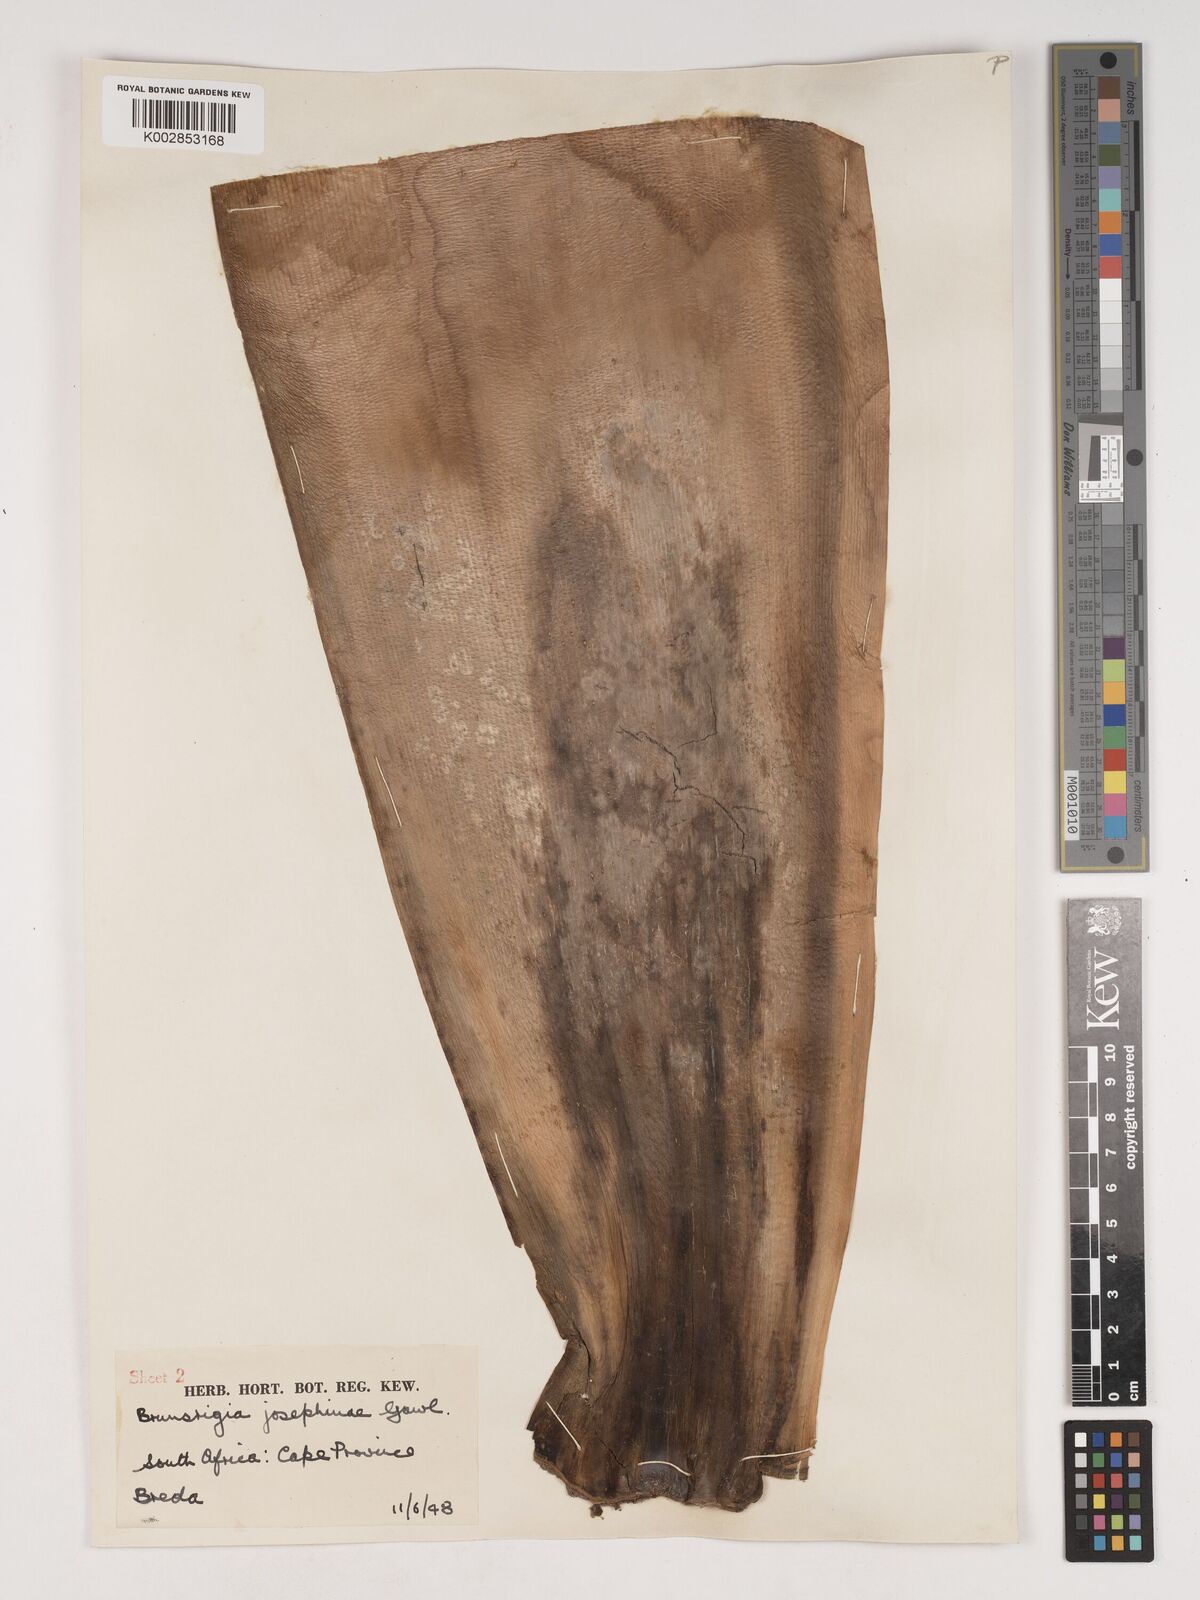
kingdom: Plantae
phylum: Tracheophyta
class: Liliopsida
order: Asparagales
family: Amaryllidaceae
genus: Brunsvigia
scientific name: Brunsvigia josephinae
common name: Josephine's-lily
